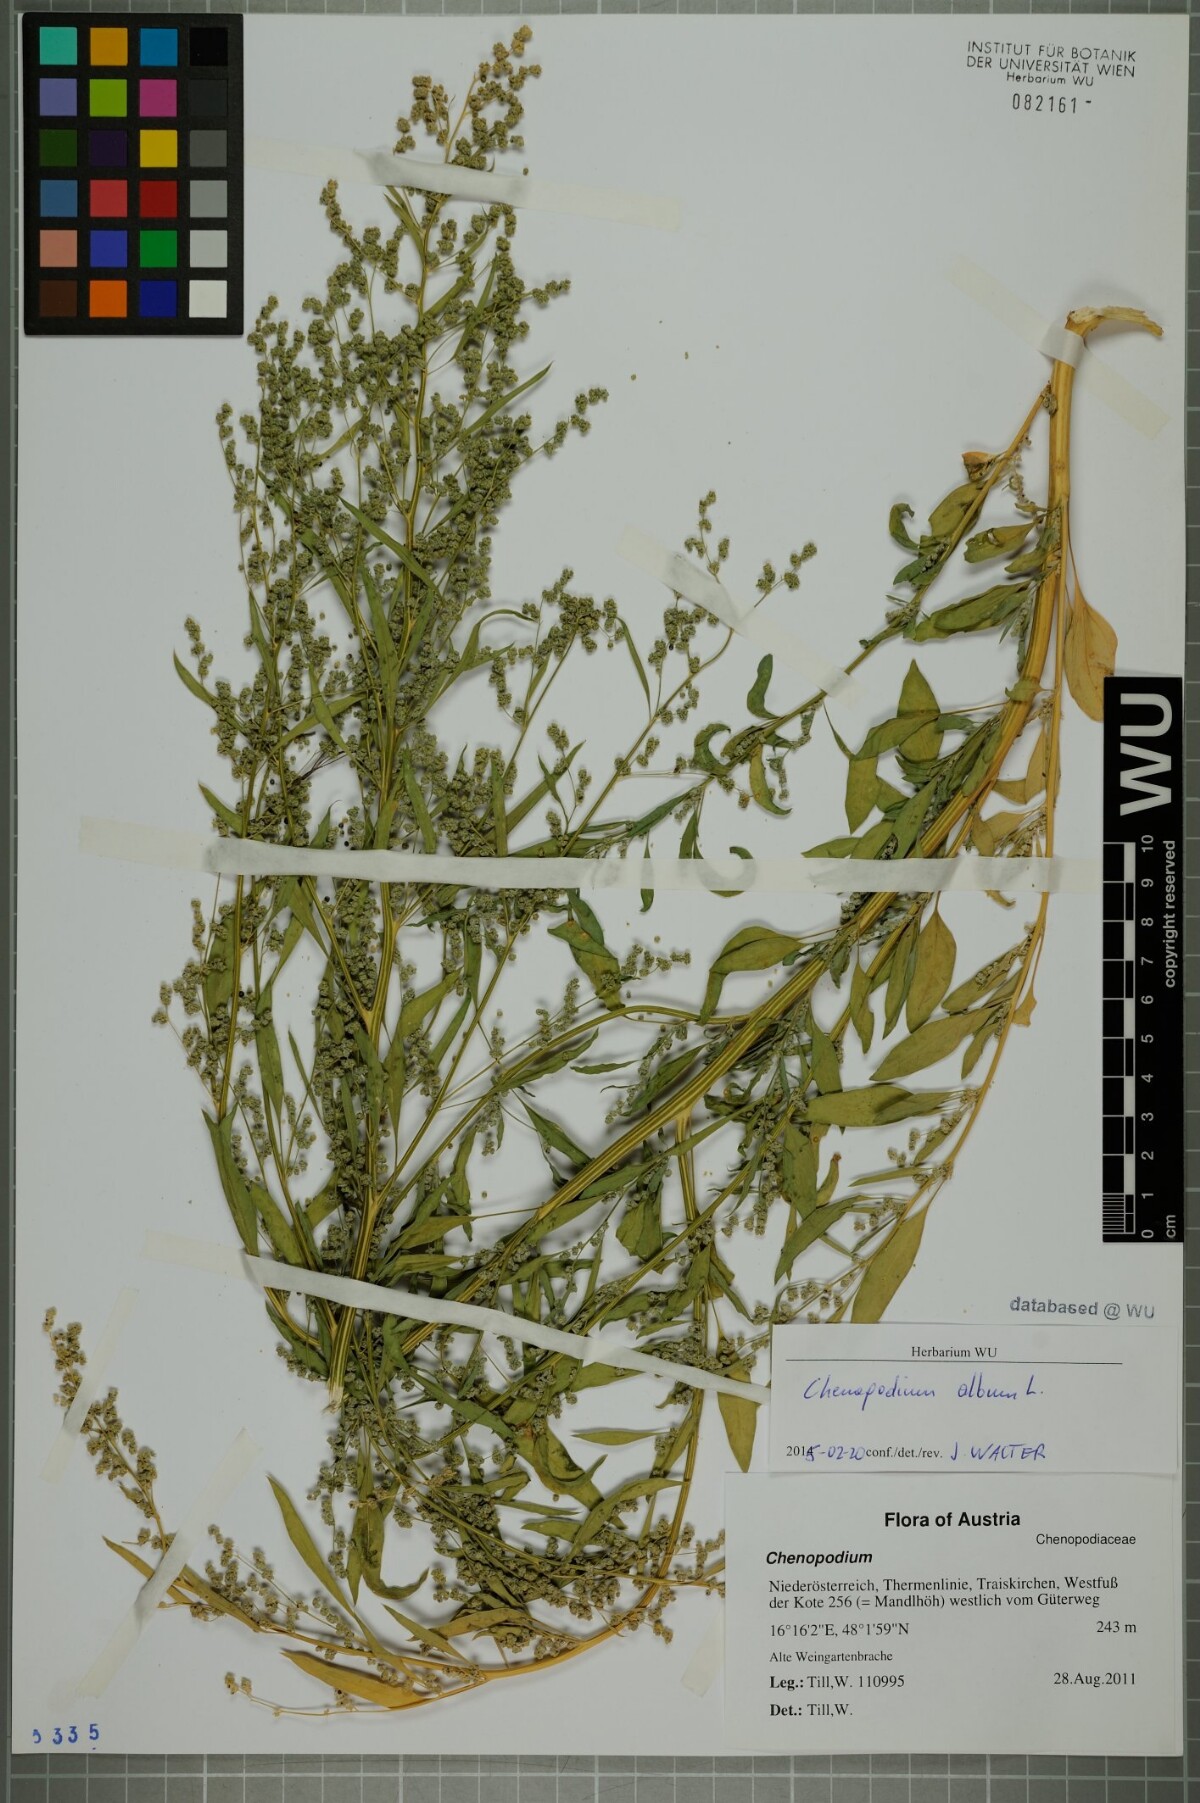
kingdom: Plantae
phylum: Tracheophyta
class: Magnoliopsida
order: Caryophyllales
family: Amaranthaceae
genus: Chenopodium
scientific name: Chenopodium album
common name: Fat-hen
